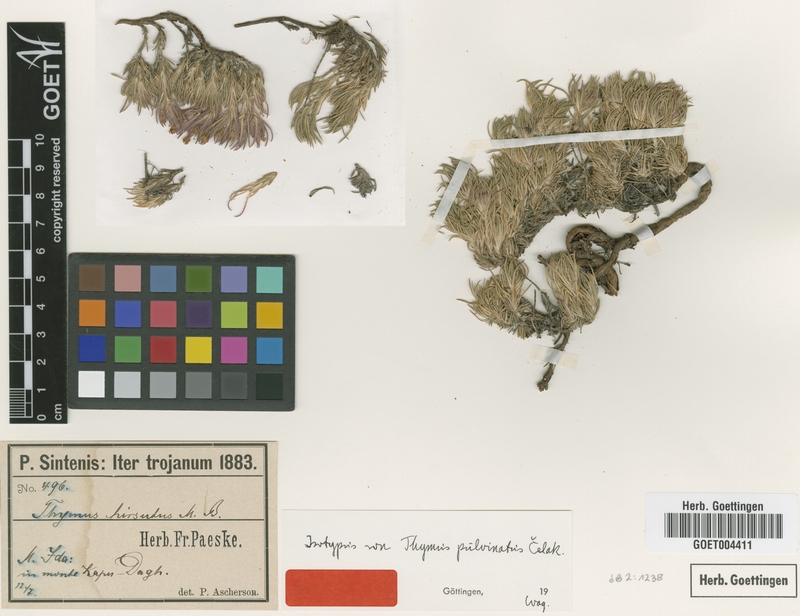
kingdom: Plantae
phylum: Tracheophyta
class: Magnoliopsida
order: Lamiales
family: Lamiaceae
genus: Thymus
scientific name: Thymus pulvinatus
